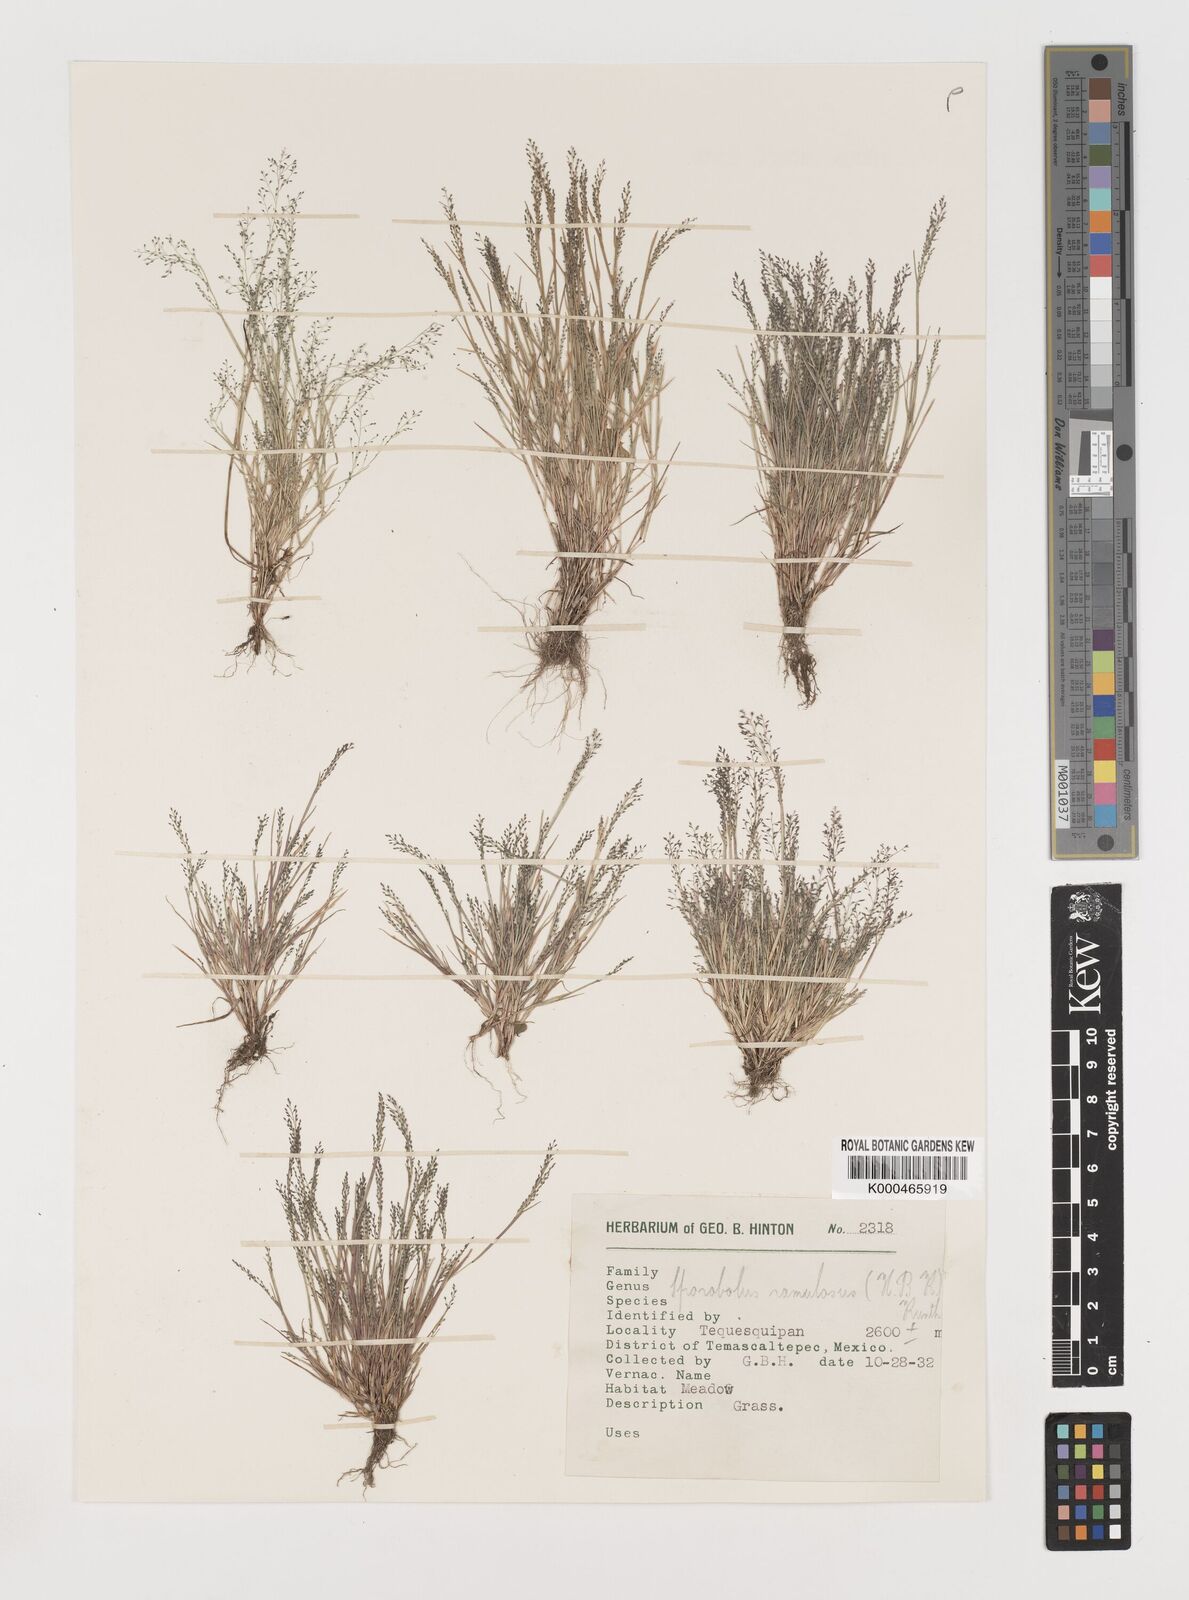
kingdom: Plantae
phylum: Tracheophyta
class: Liliopsida
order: Poales
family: Poaceae
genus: Muhlenbergia
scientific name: Muhlenbergia ramulosa
